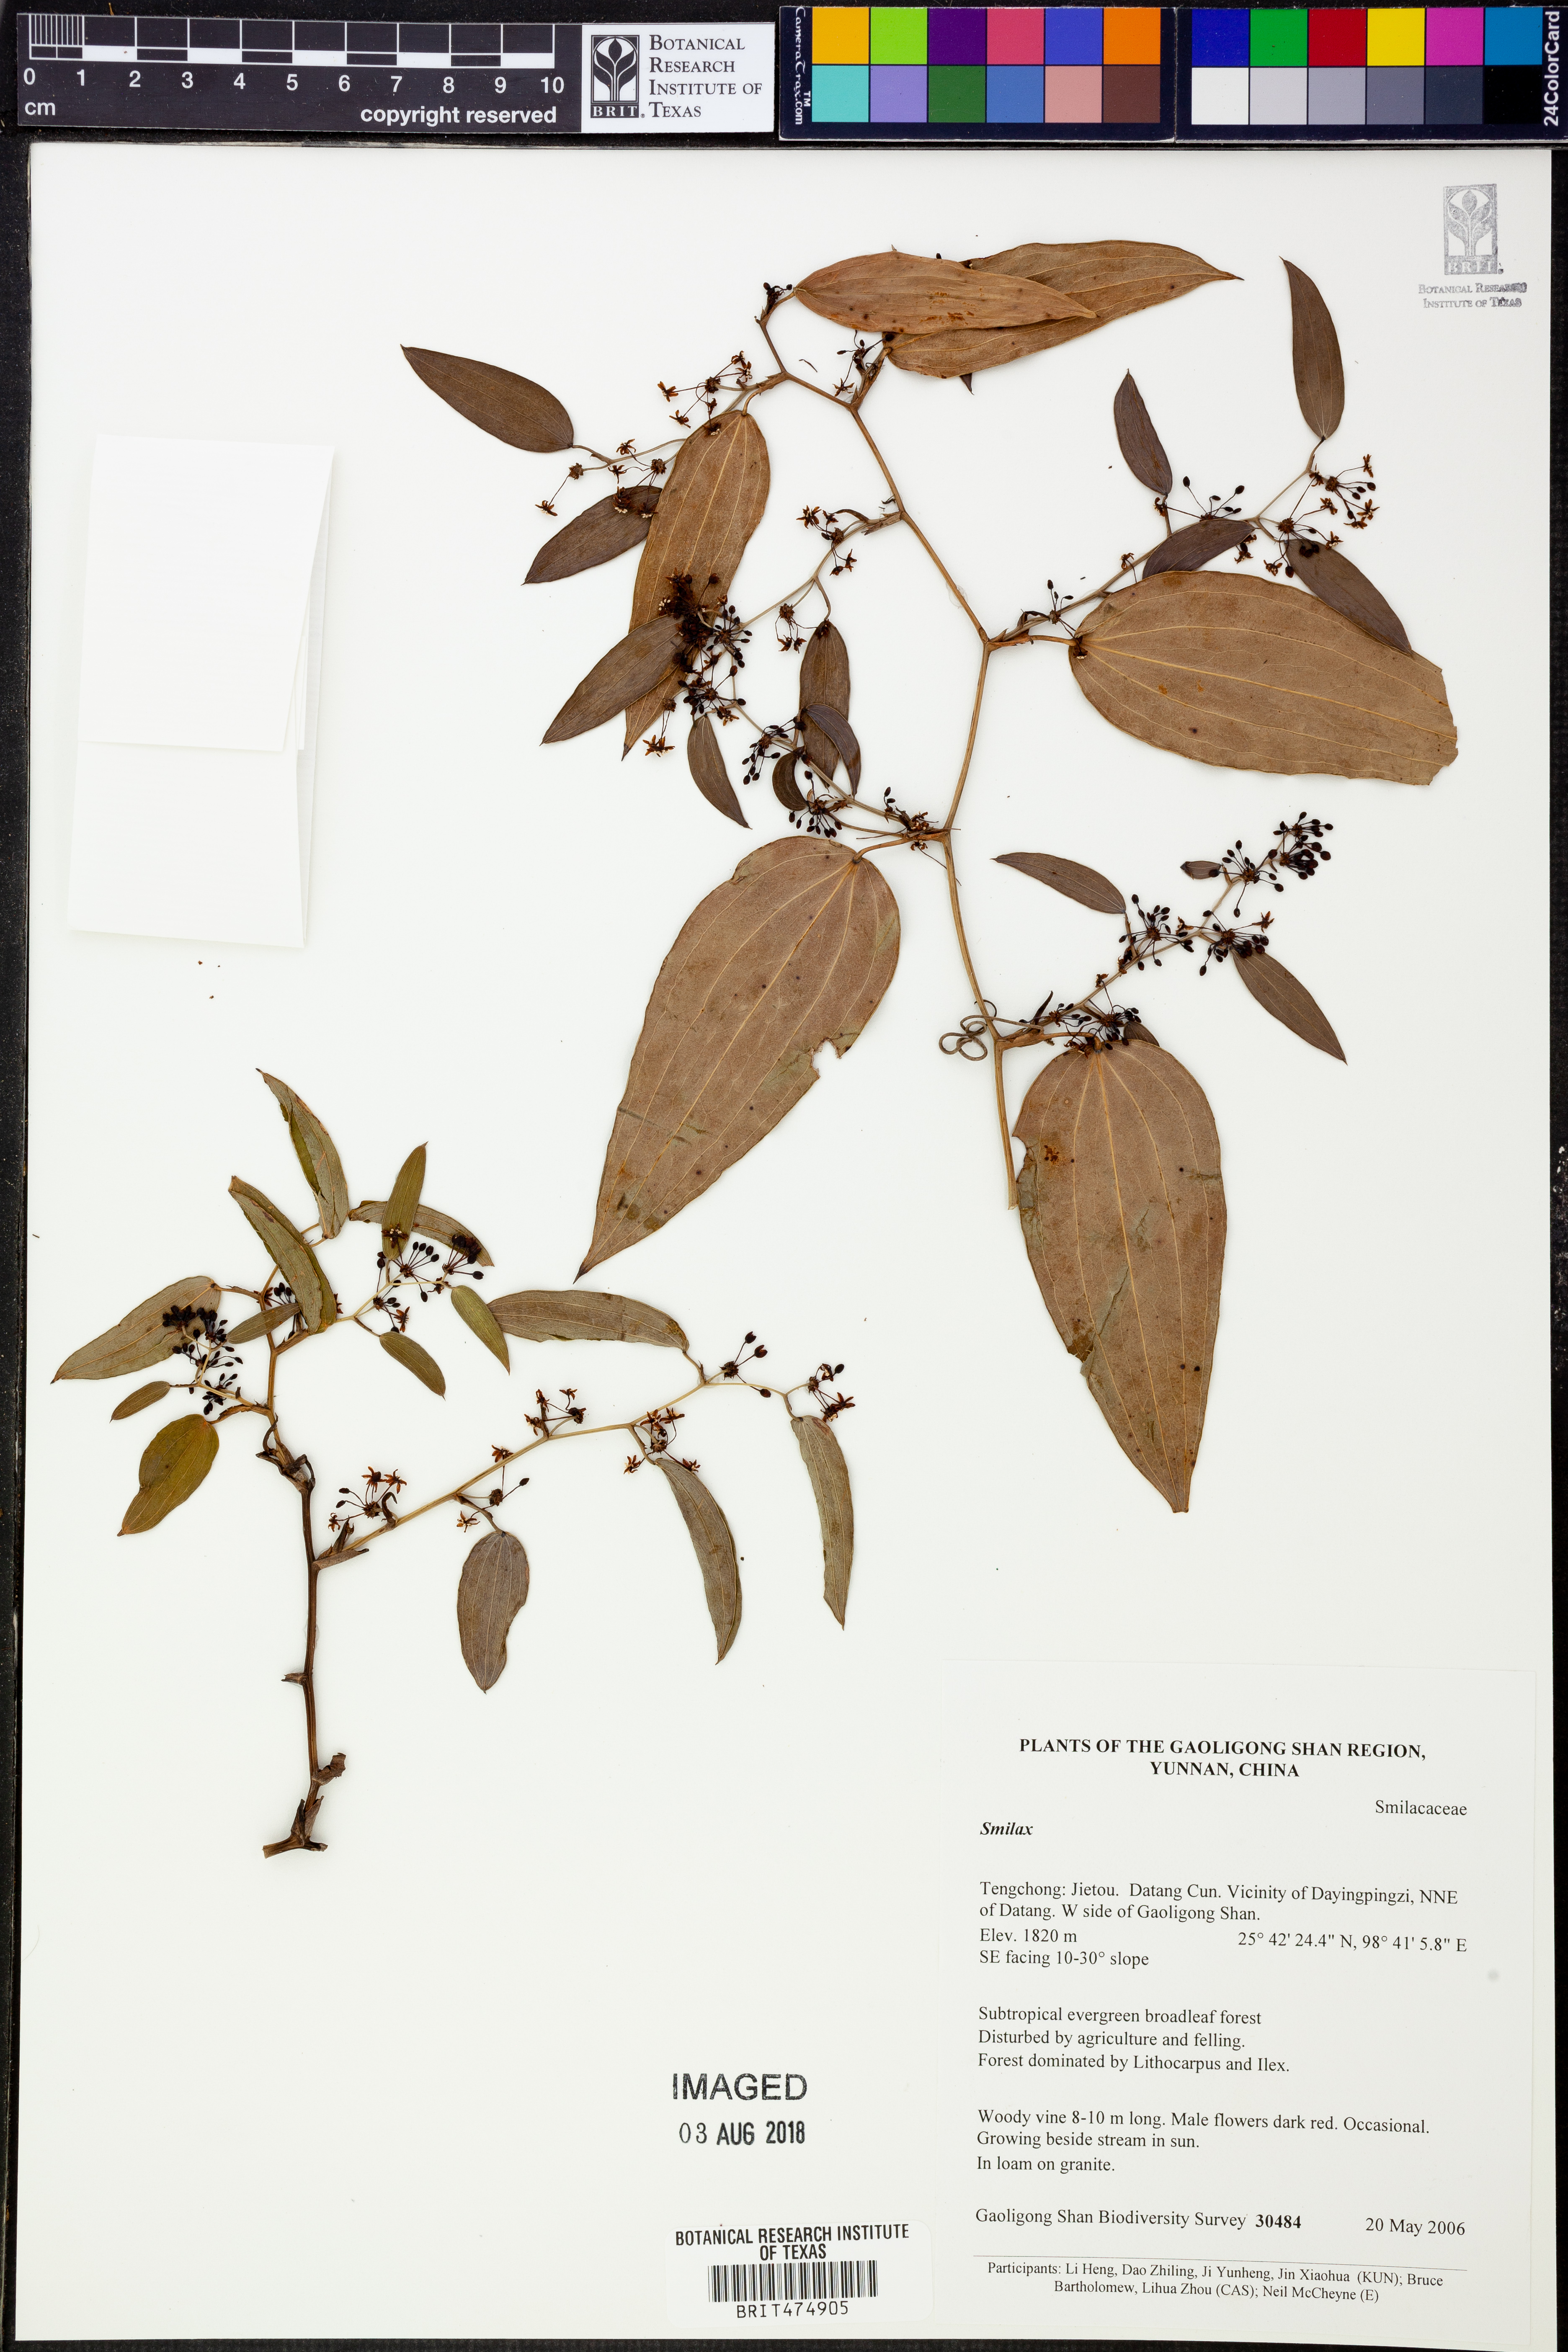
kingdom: Plantae
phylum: Tracheophyta
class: Liliopsida
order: Liliales
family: Smilacaceae
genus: Smilax
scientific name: Smilax
